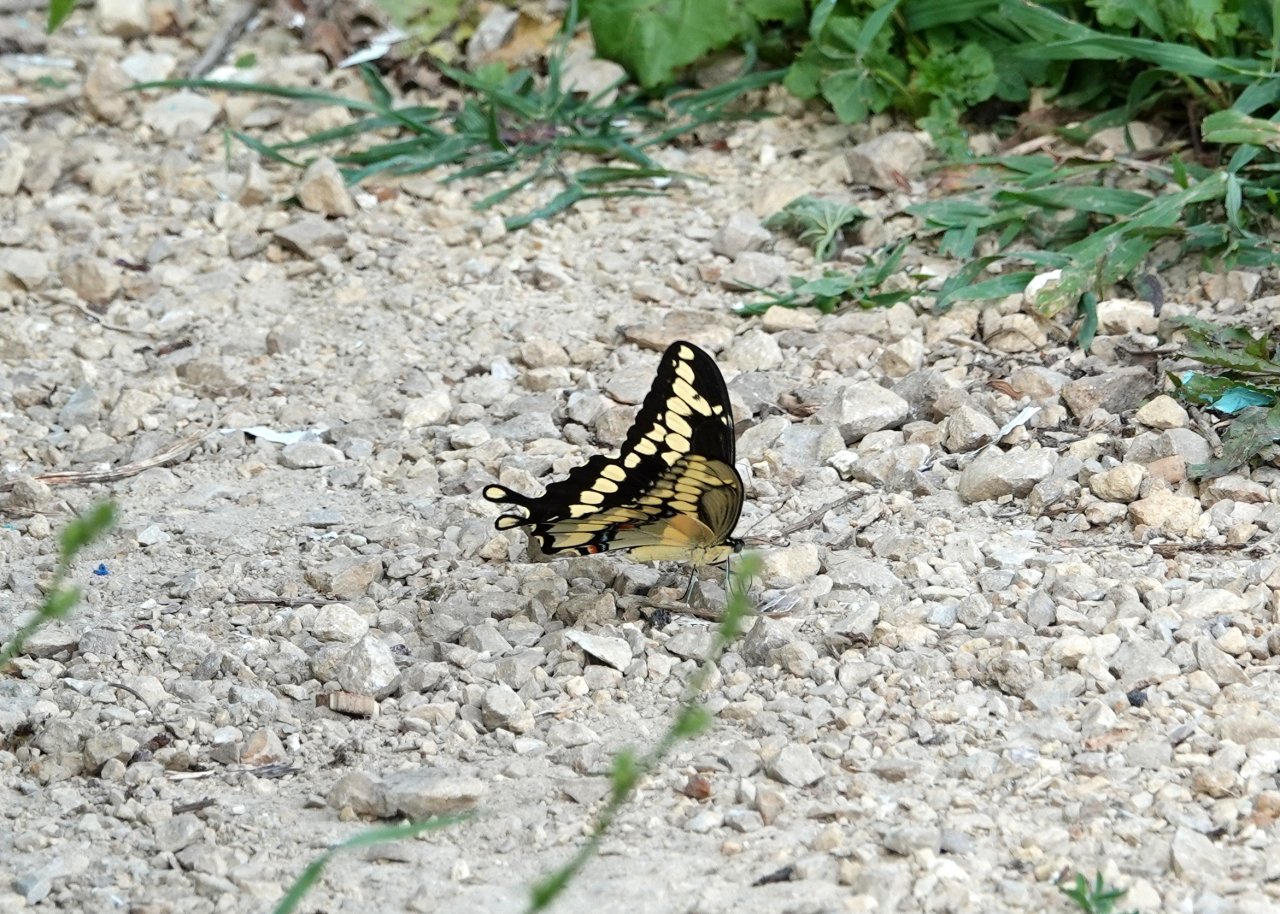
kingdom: Animalia
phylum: Arthropoda
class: Insecta
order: Lepidoptera
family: Papilionidae
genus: Papilio
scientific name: Papilio cresphontes
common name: Eastern Giant Swallowtail
